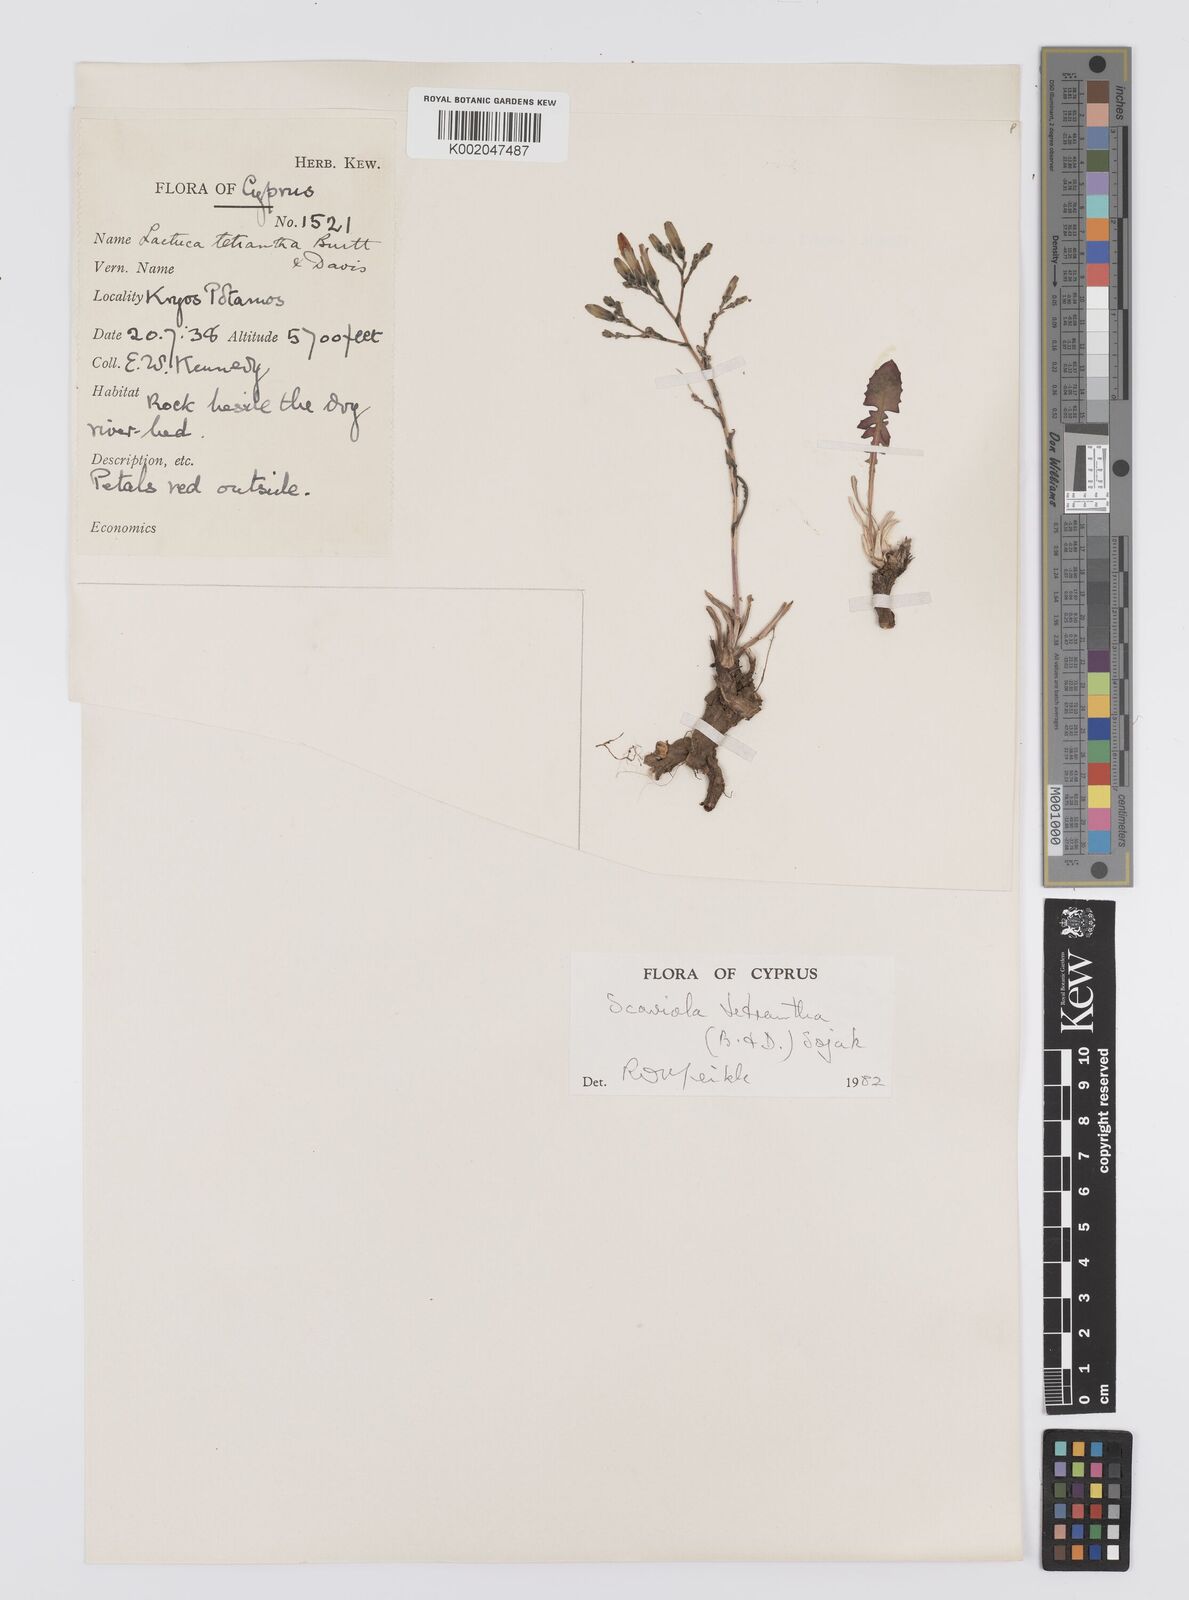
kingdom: Plantae
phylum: Tracheophyta
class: Magnoliopsida
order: Asterales
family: Asteraceae
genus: Lactuca
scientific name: Lactuca tetrantha
